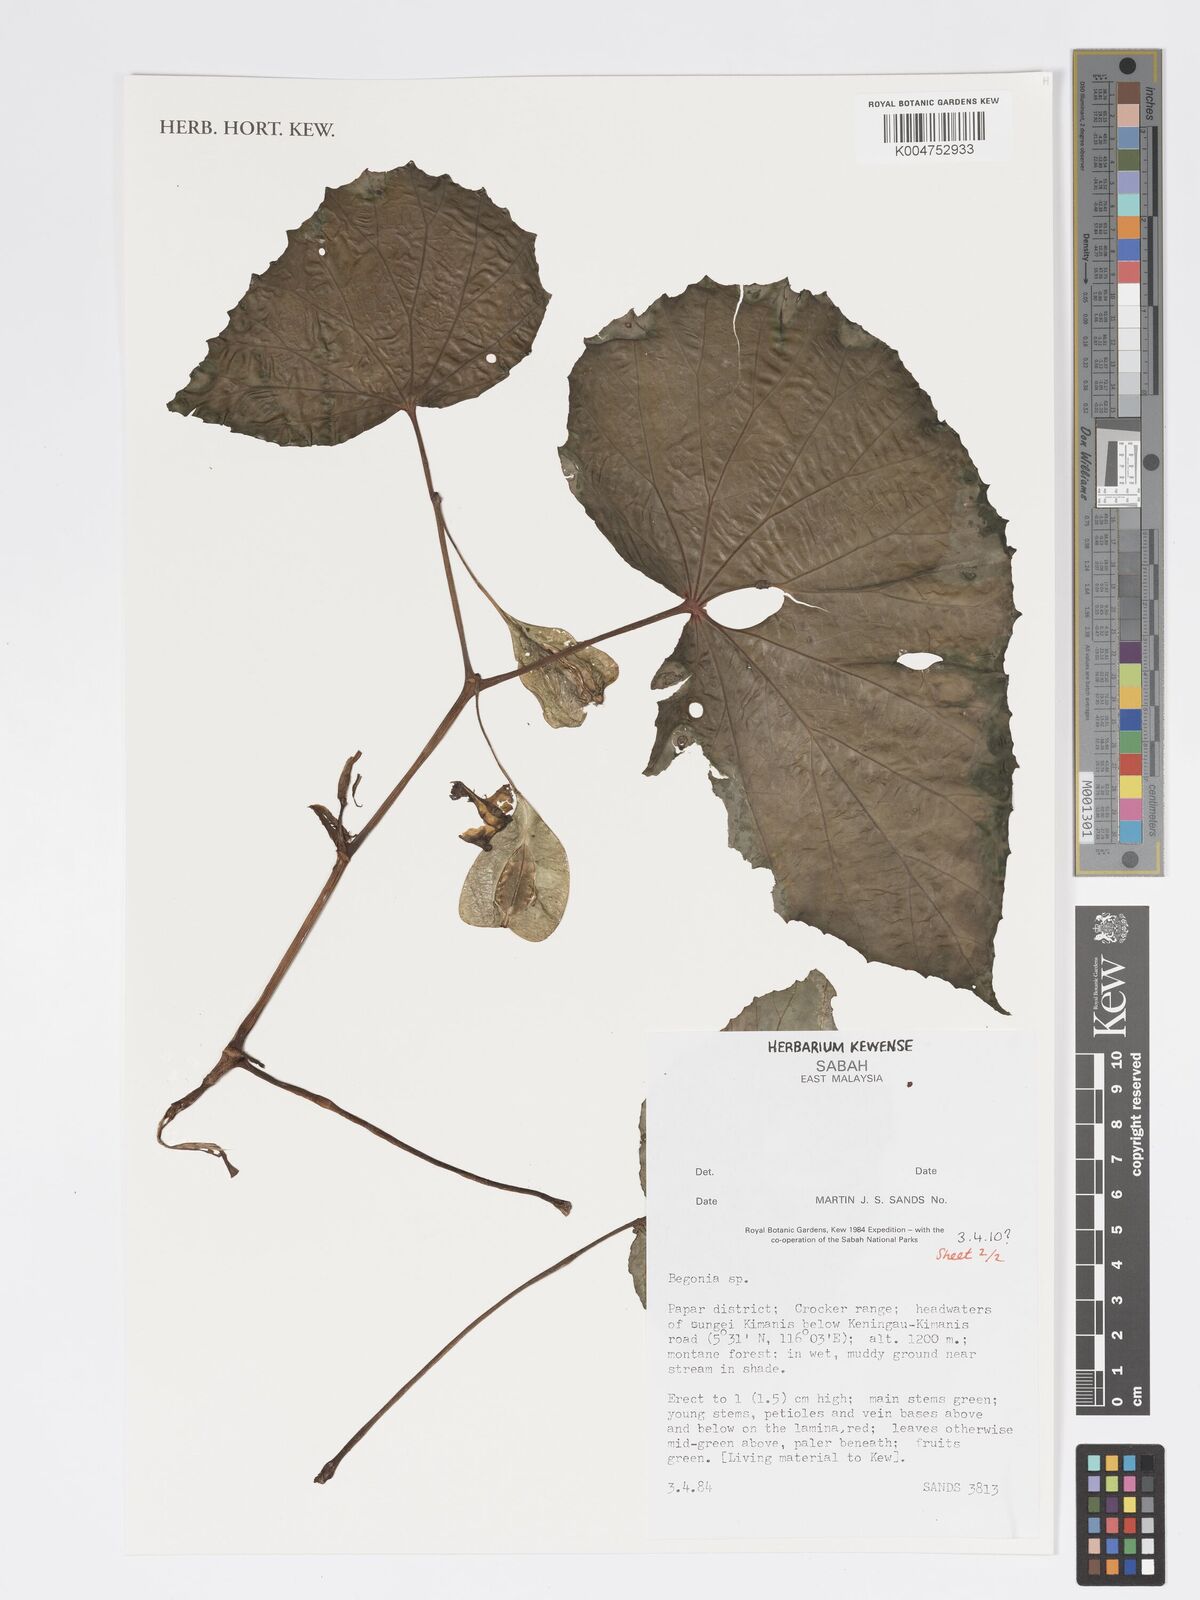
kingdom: Plantae
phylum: Tracheophyta
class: Magnoliopsida
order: Cucurbitales
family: Begoniaceae
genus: Begonia
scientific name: Begonia
